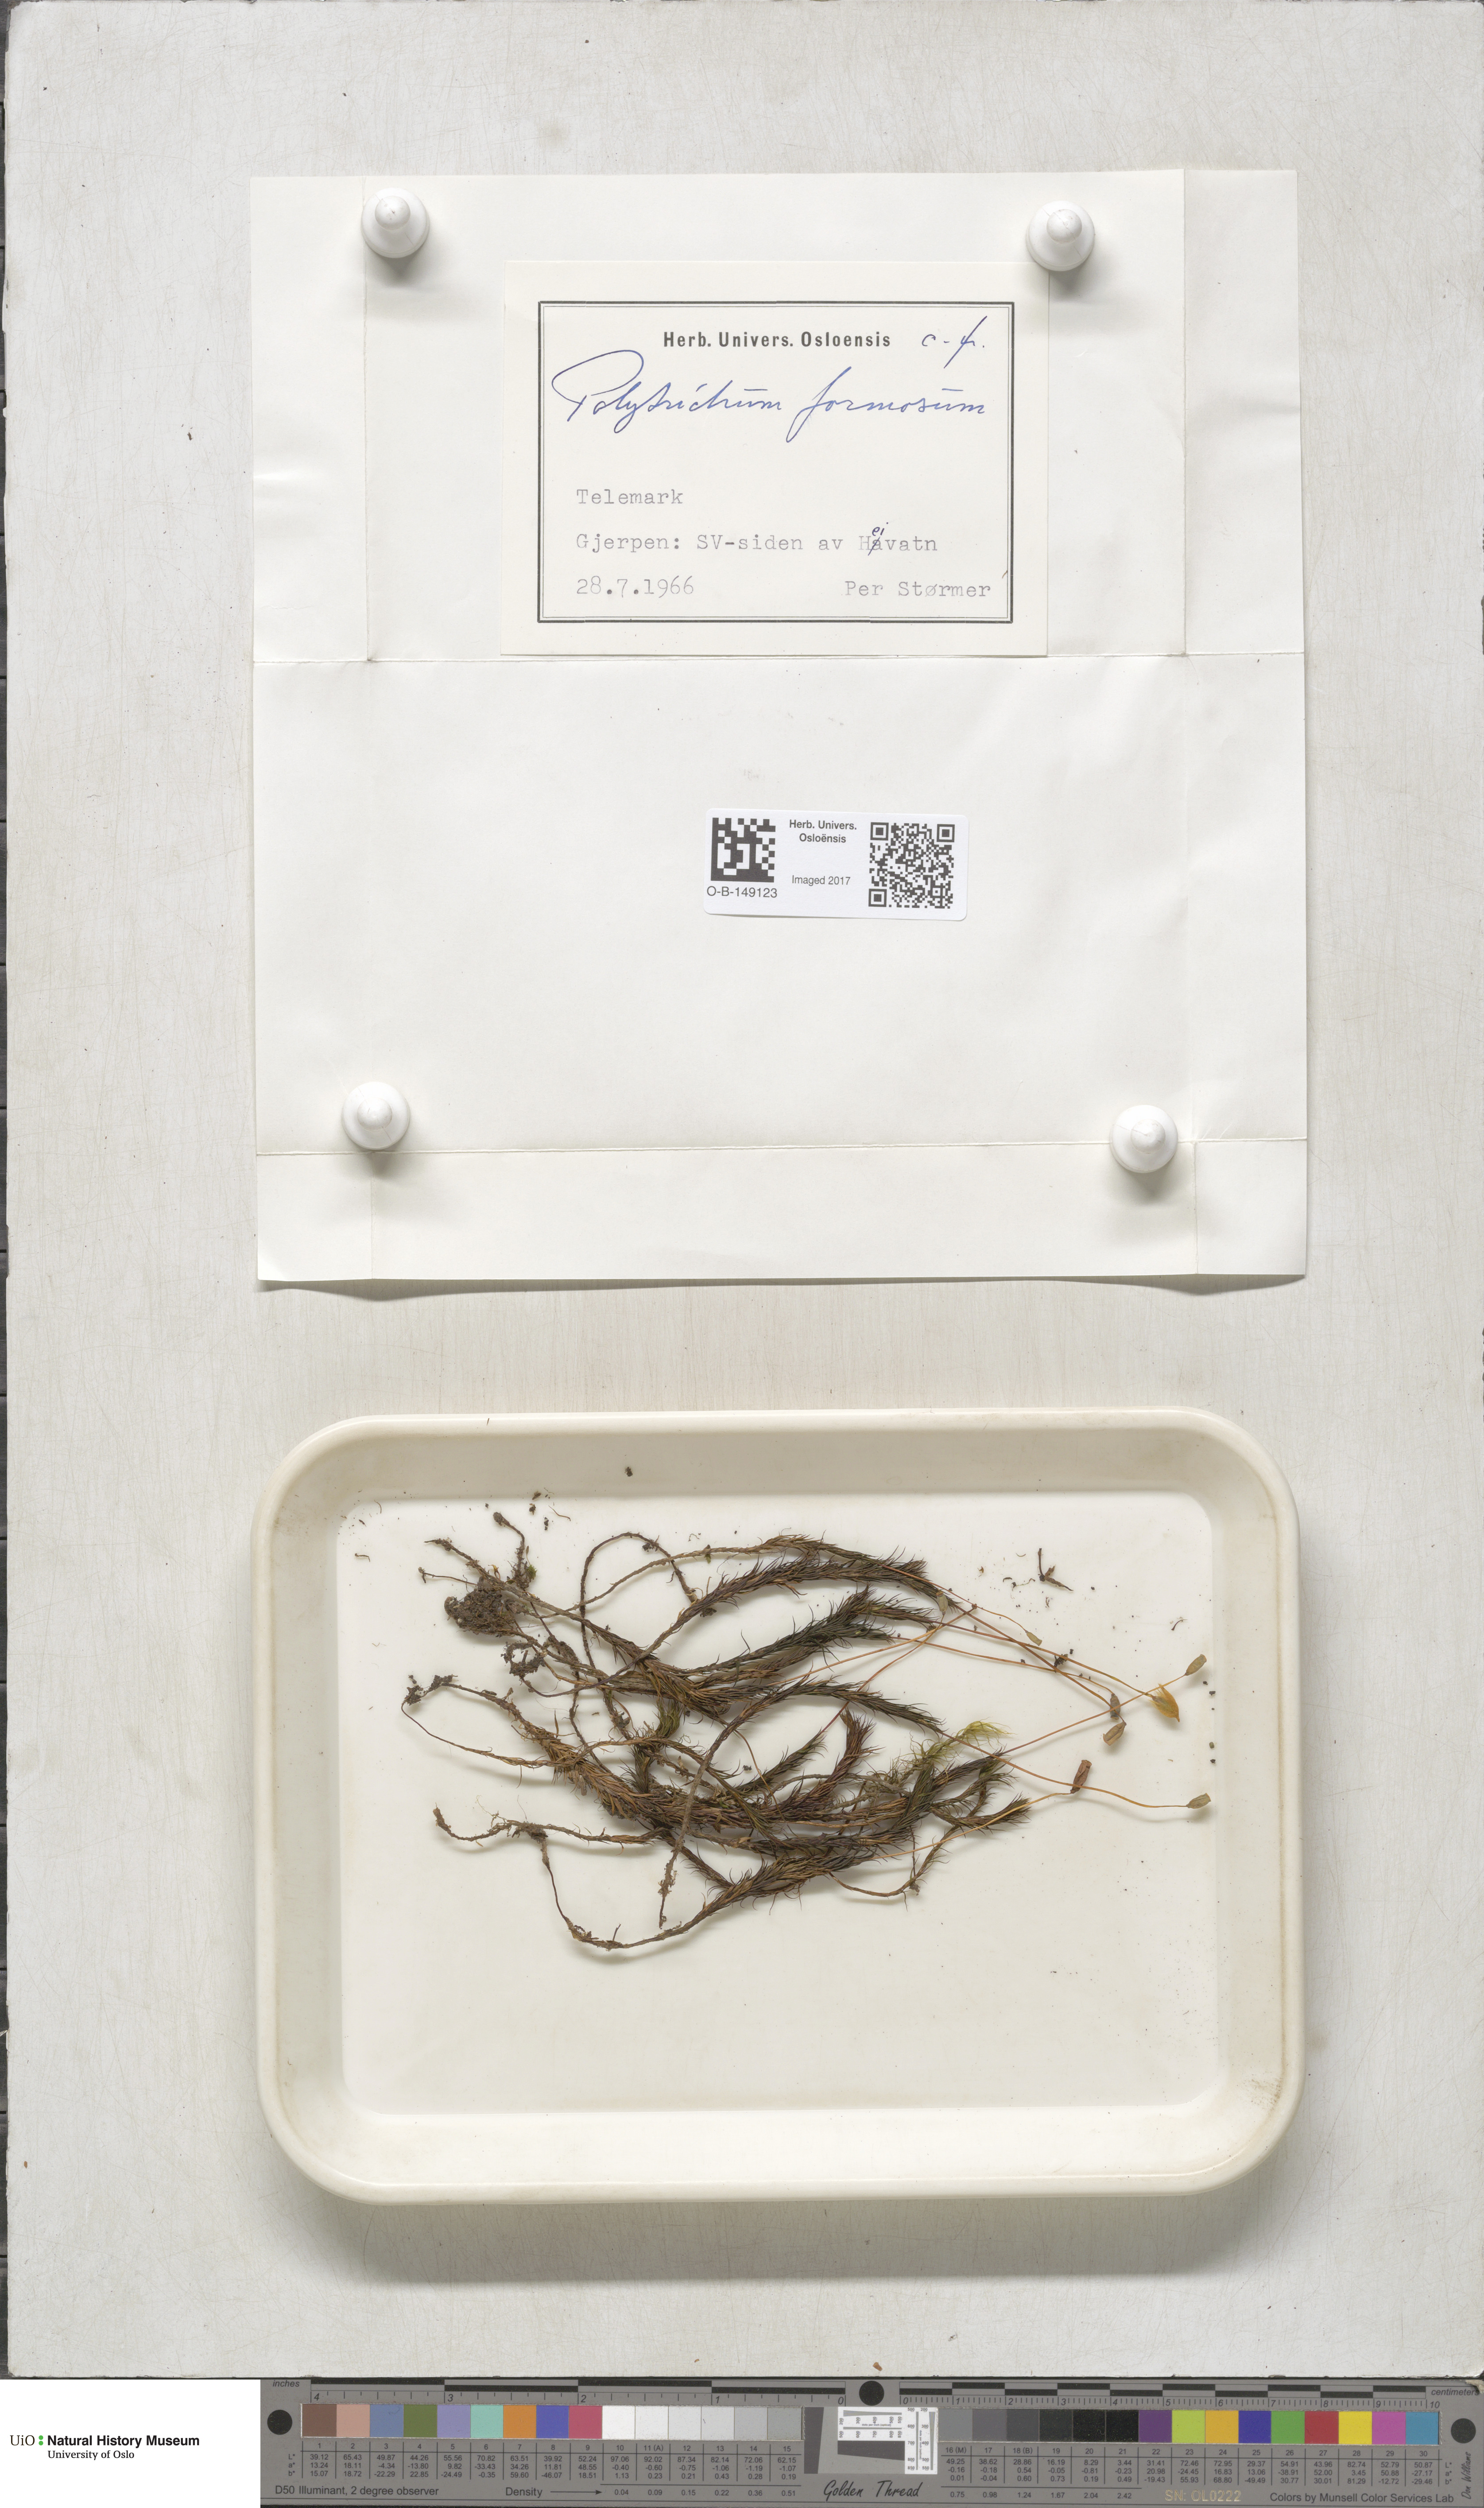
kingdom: Plantae
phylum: Bryophyta
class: Polytrichopsida
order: Polytrichales
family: Polytrichaceae
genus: Polytrichum
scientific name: Polytrichum formosum
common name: Bank haircap moss
